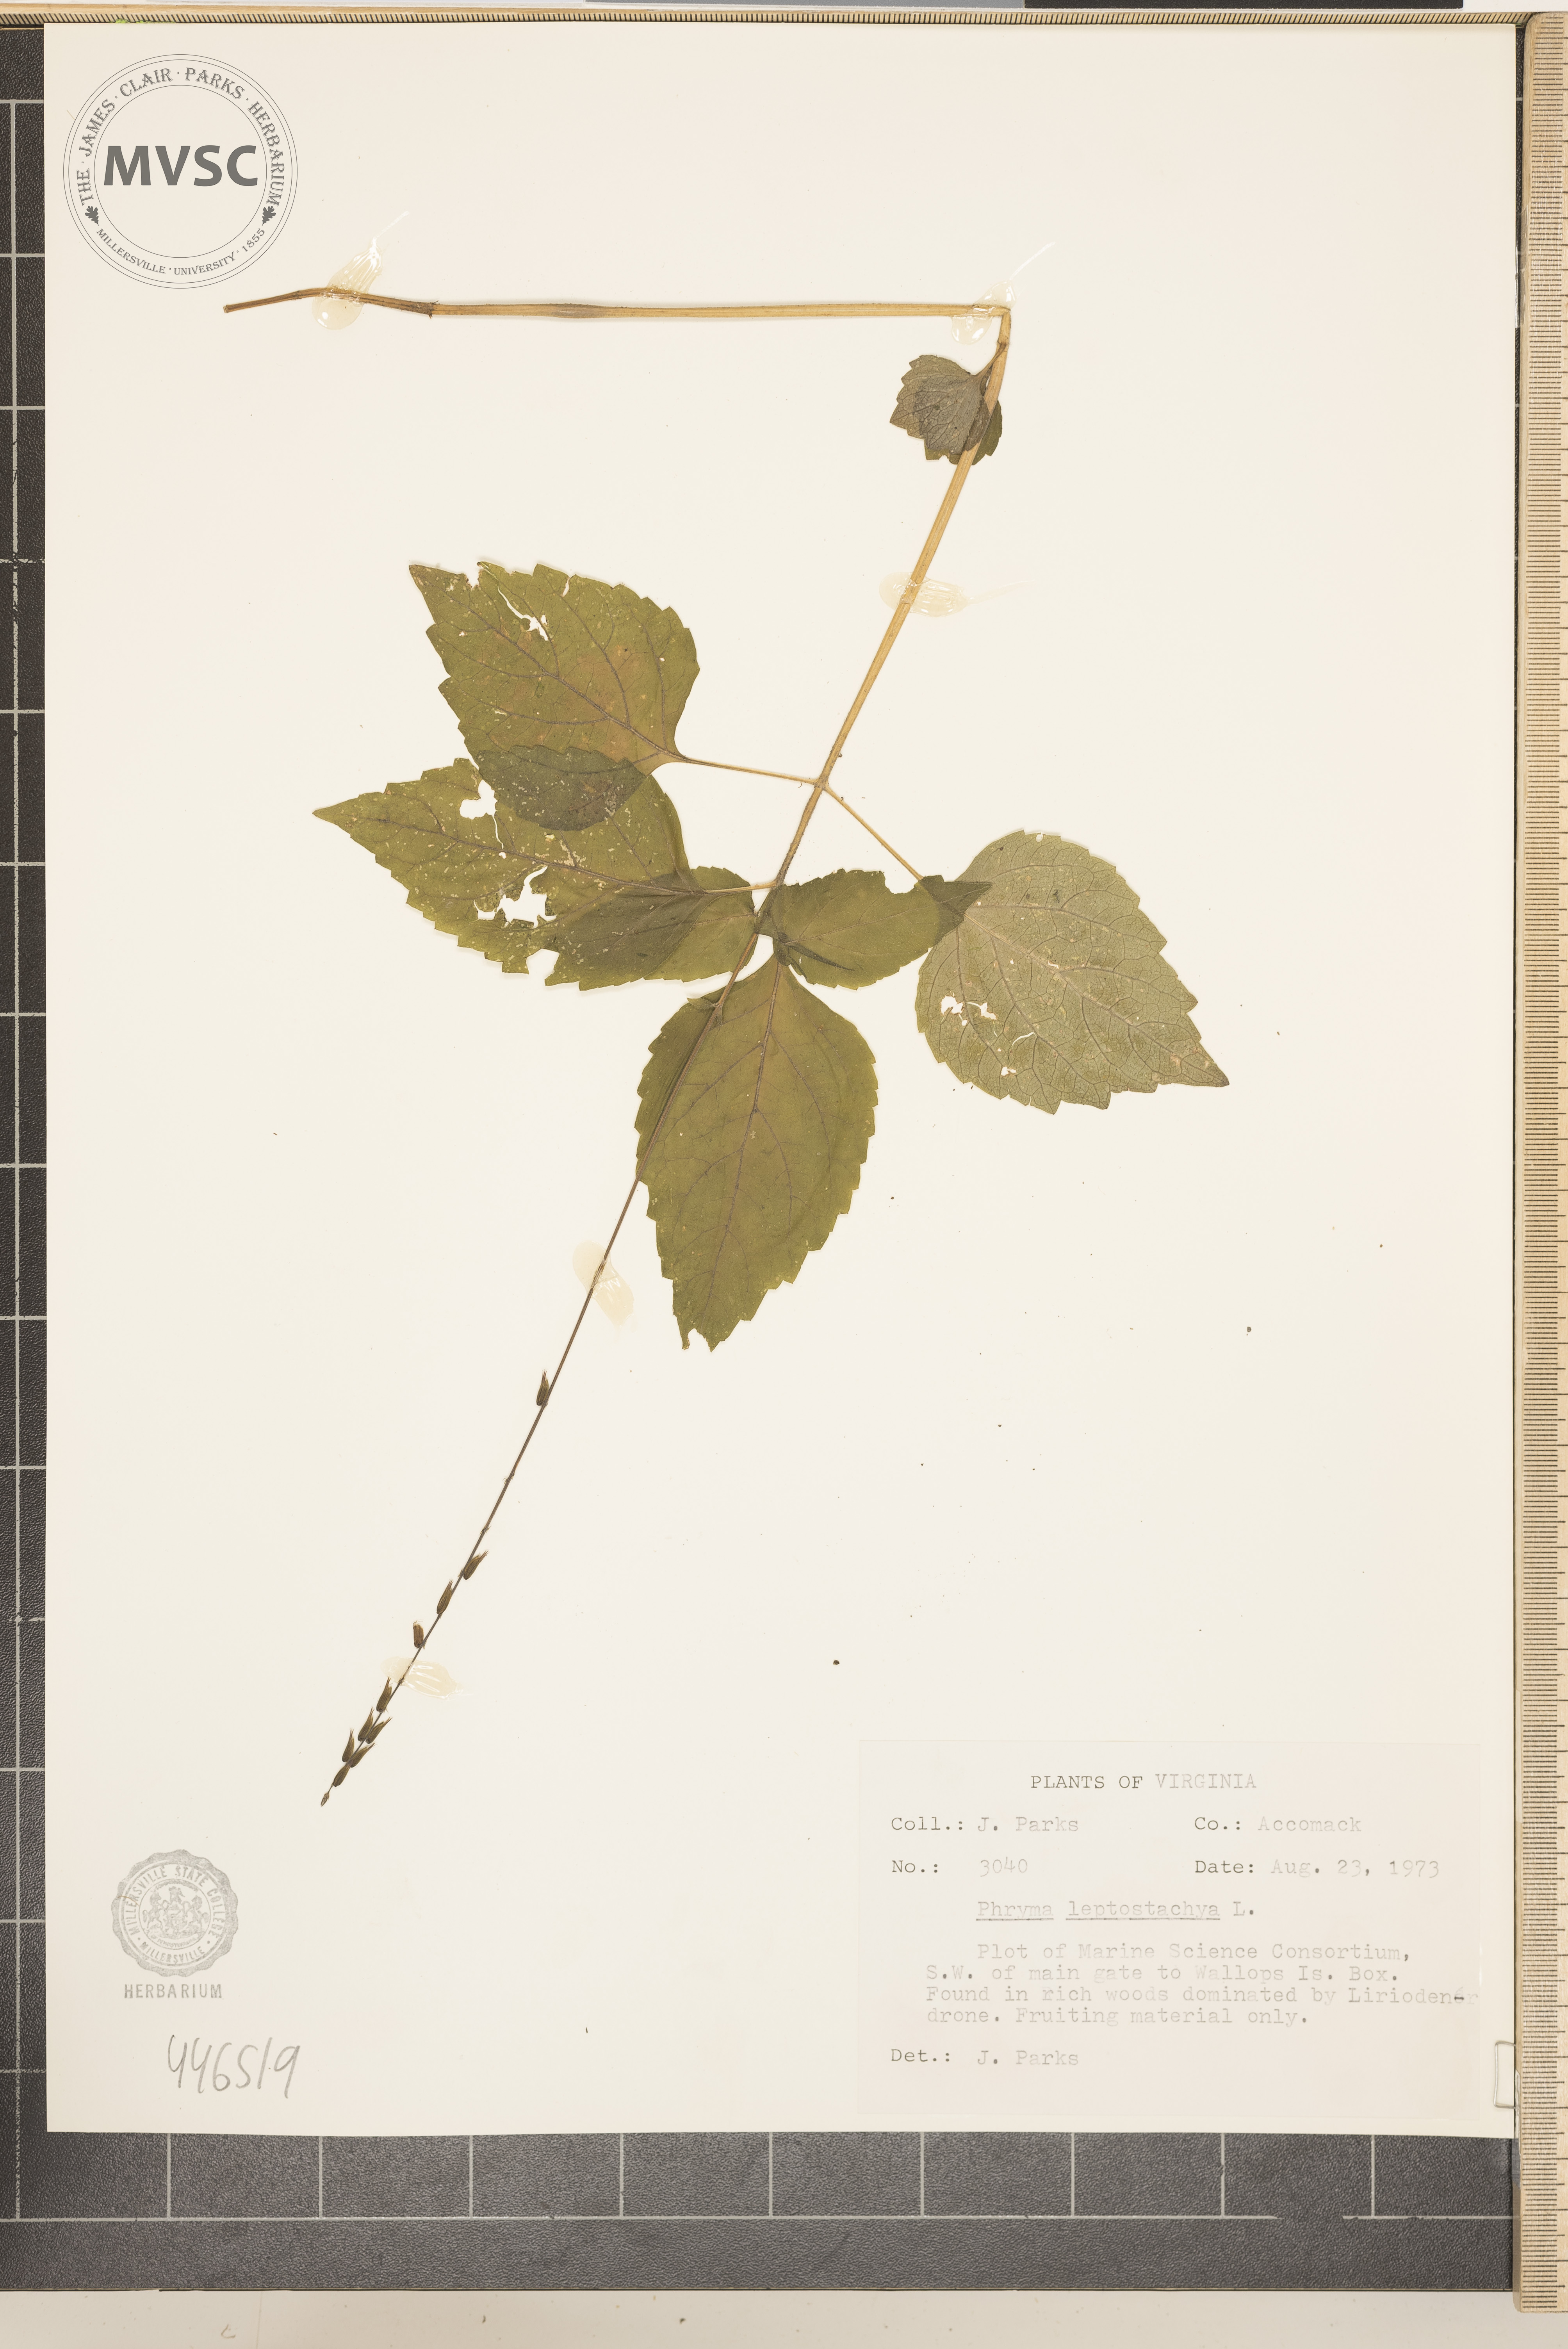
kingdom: Plantae
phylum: Tracheophyta
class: Magnoliopsida
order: Lamiales
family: Phrymaceae
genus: Phryma
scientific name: Phryma leptostachya
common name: American lopseed
